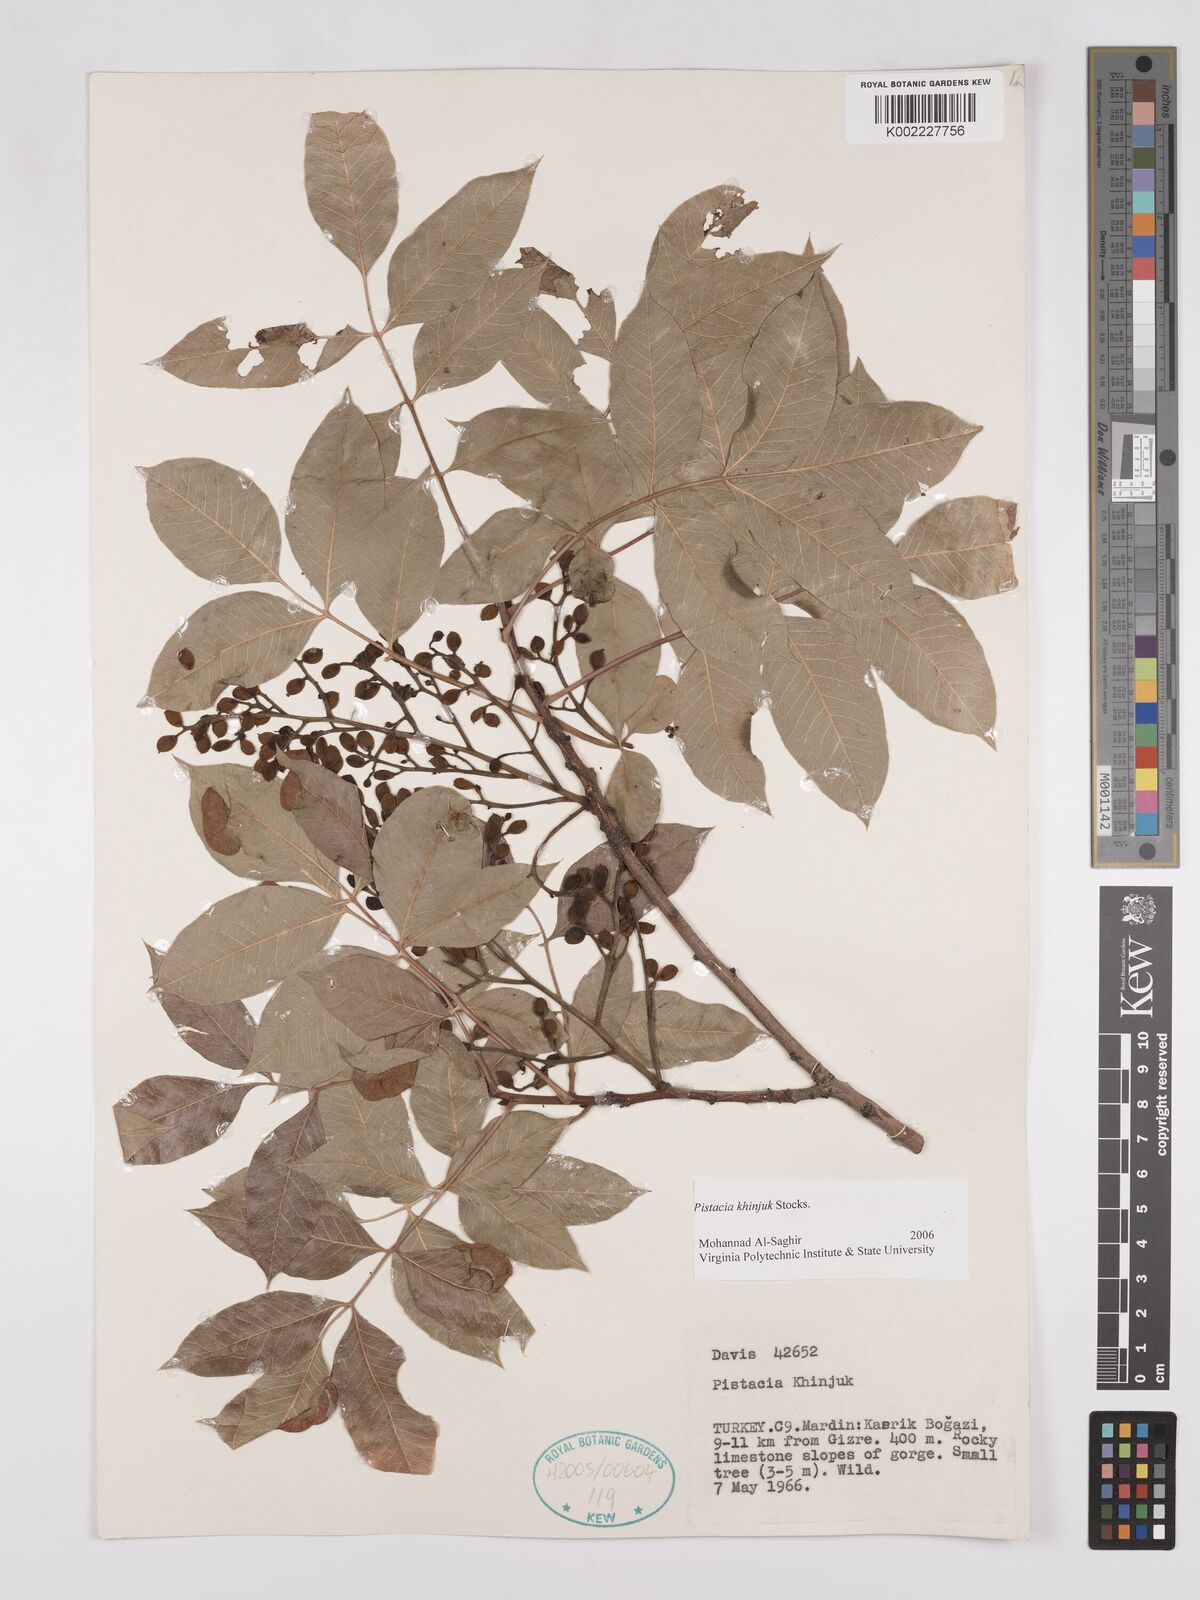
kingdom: Plantae
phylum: Tracheophyta
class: Magnoliopsida
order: Sapindales
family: Anacardiaceae
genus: Pistacia
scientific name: Pistacia
